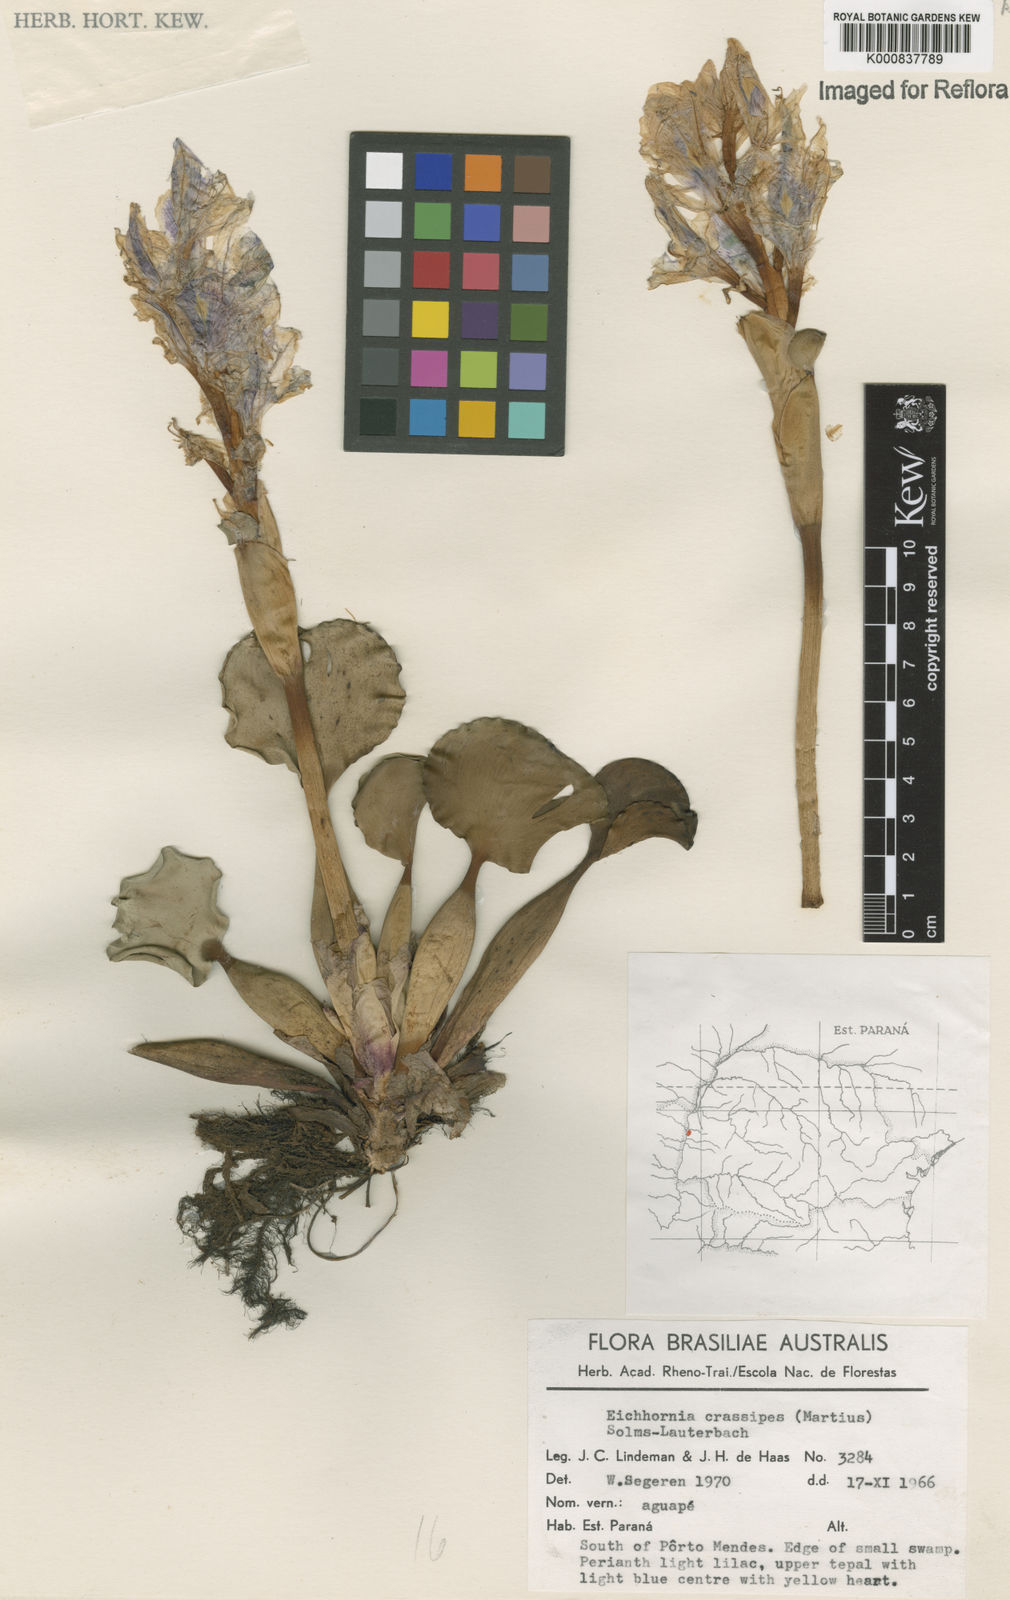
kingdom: Plantae
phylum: Tracheophyta
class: Liliopsida
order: Commelinales
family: Pontederiaceae
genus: Pontederia
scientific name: Pontederia crassipes
